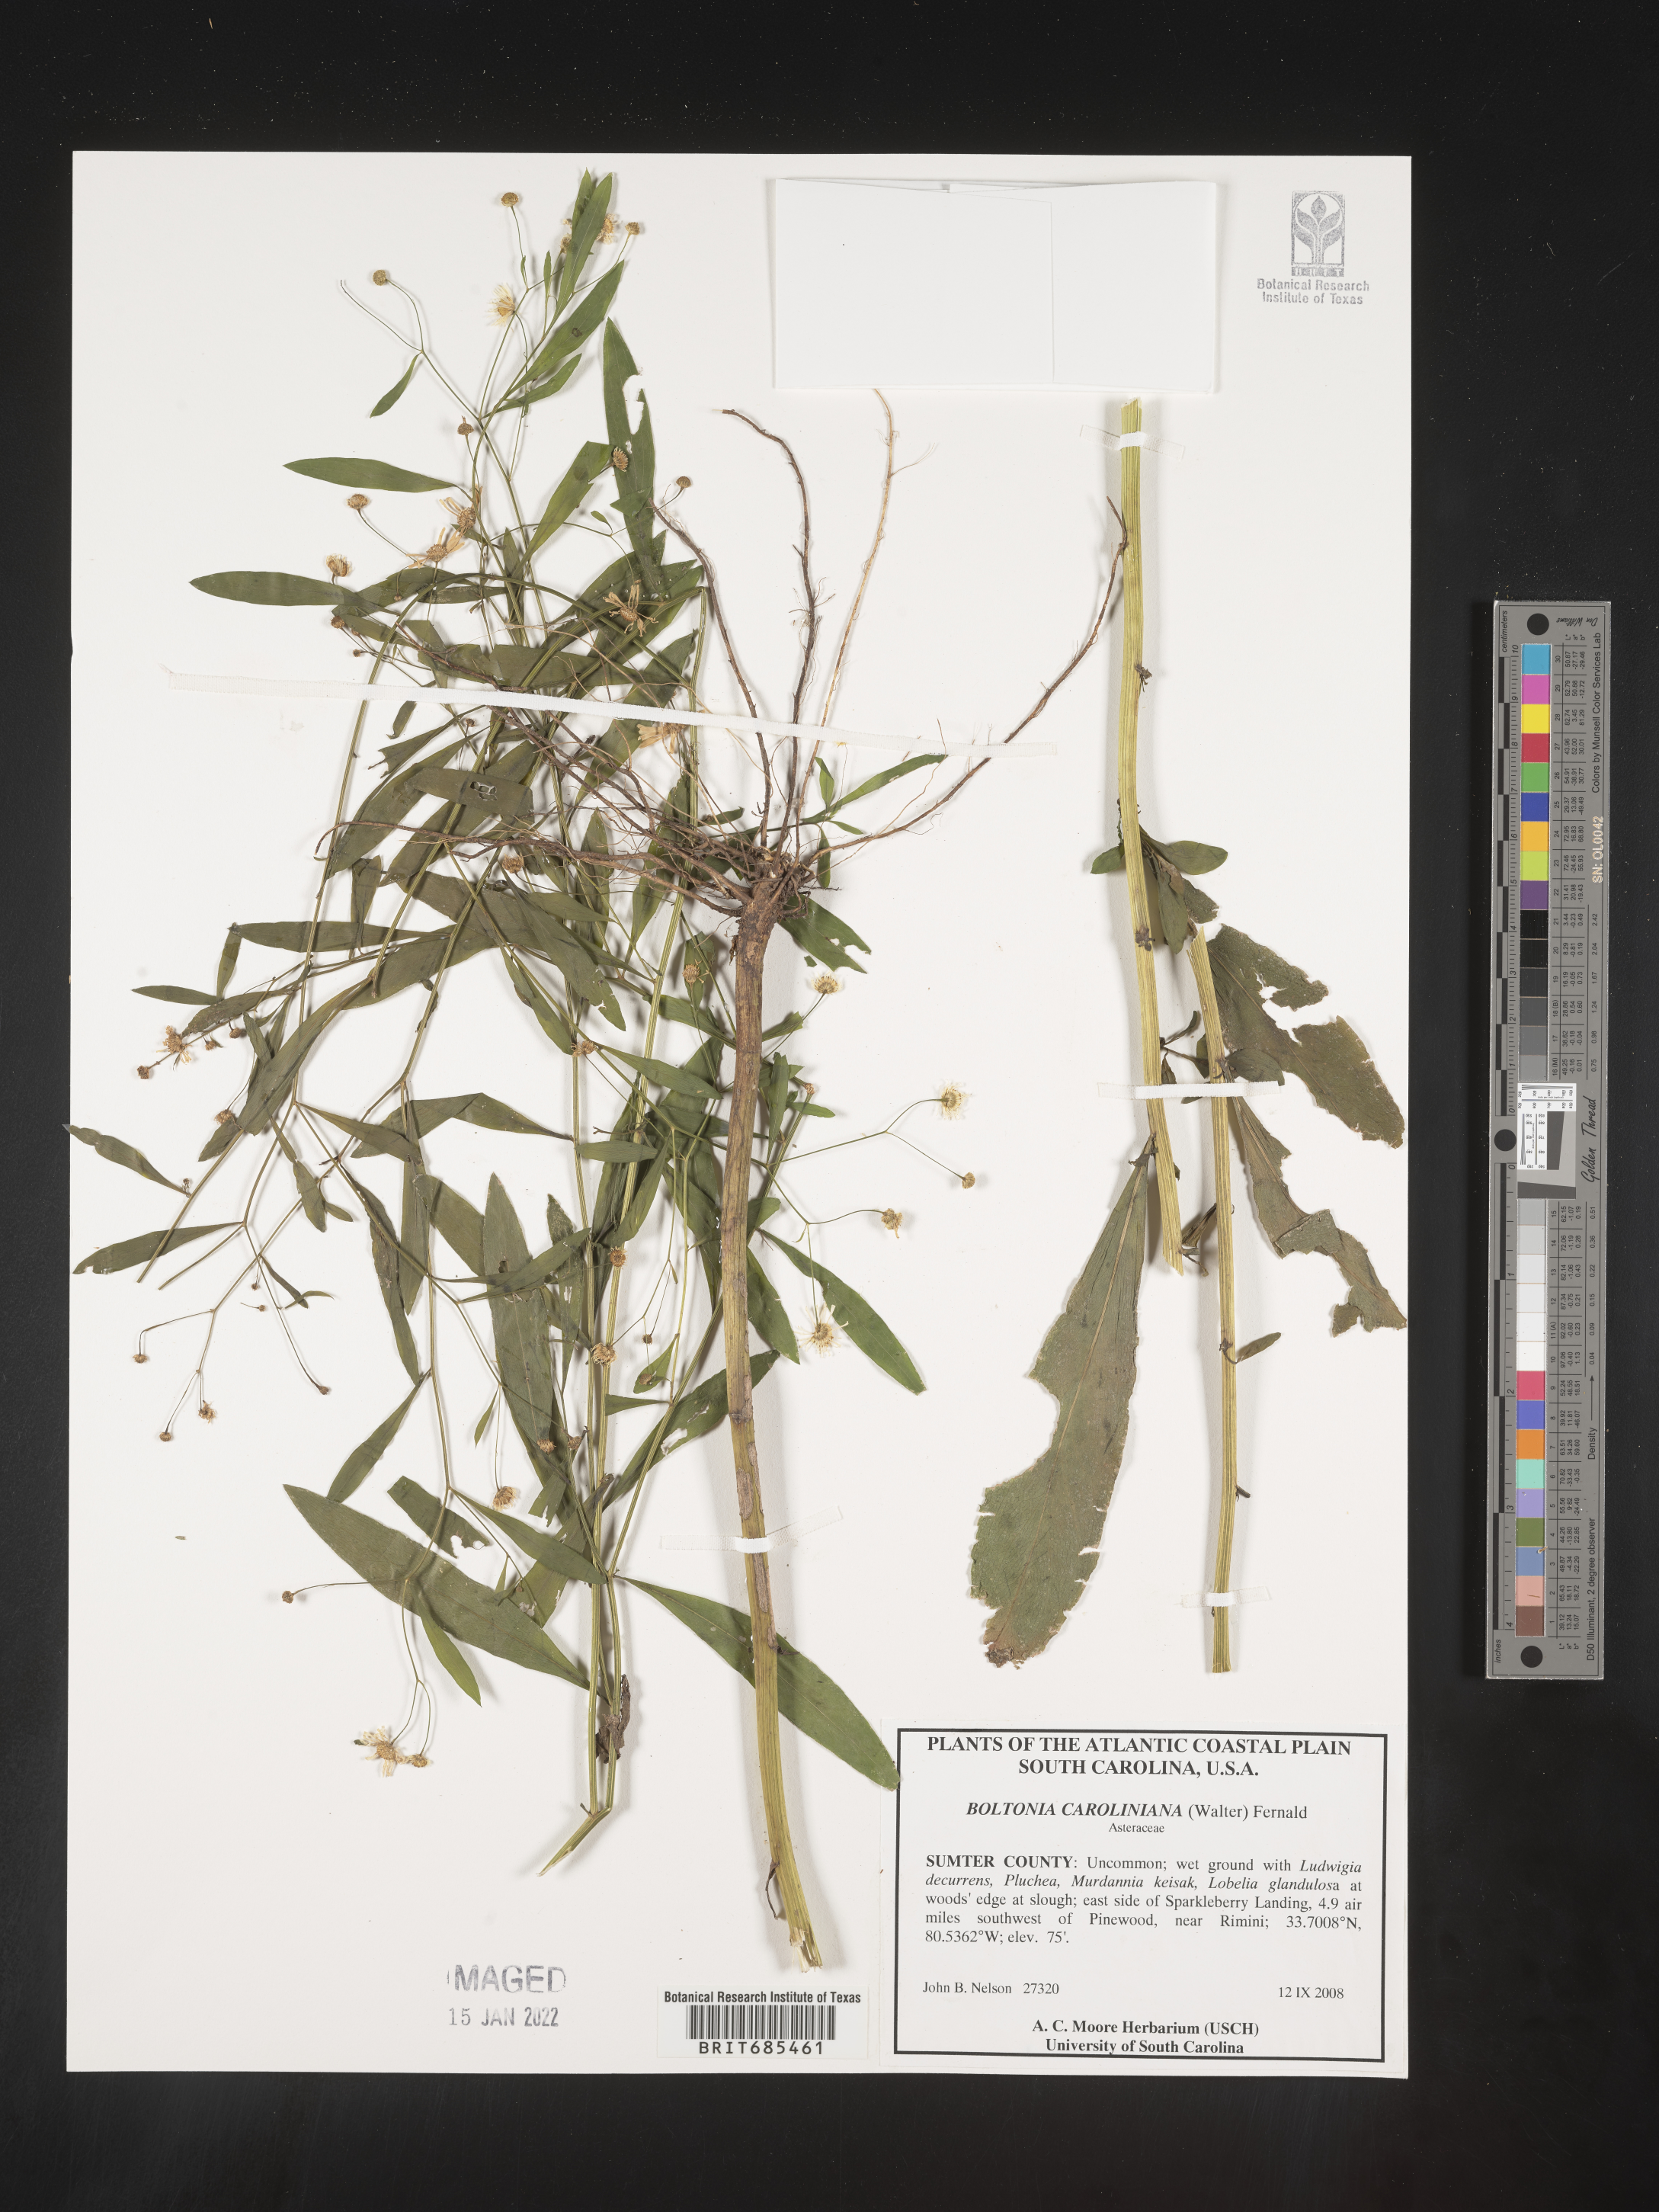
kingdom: Plantae
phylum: Tracheophyta
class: Magnoliopsida
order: Asterales
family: Asteraceae
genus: Boltonia
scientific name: Boltonia caroliniana
